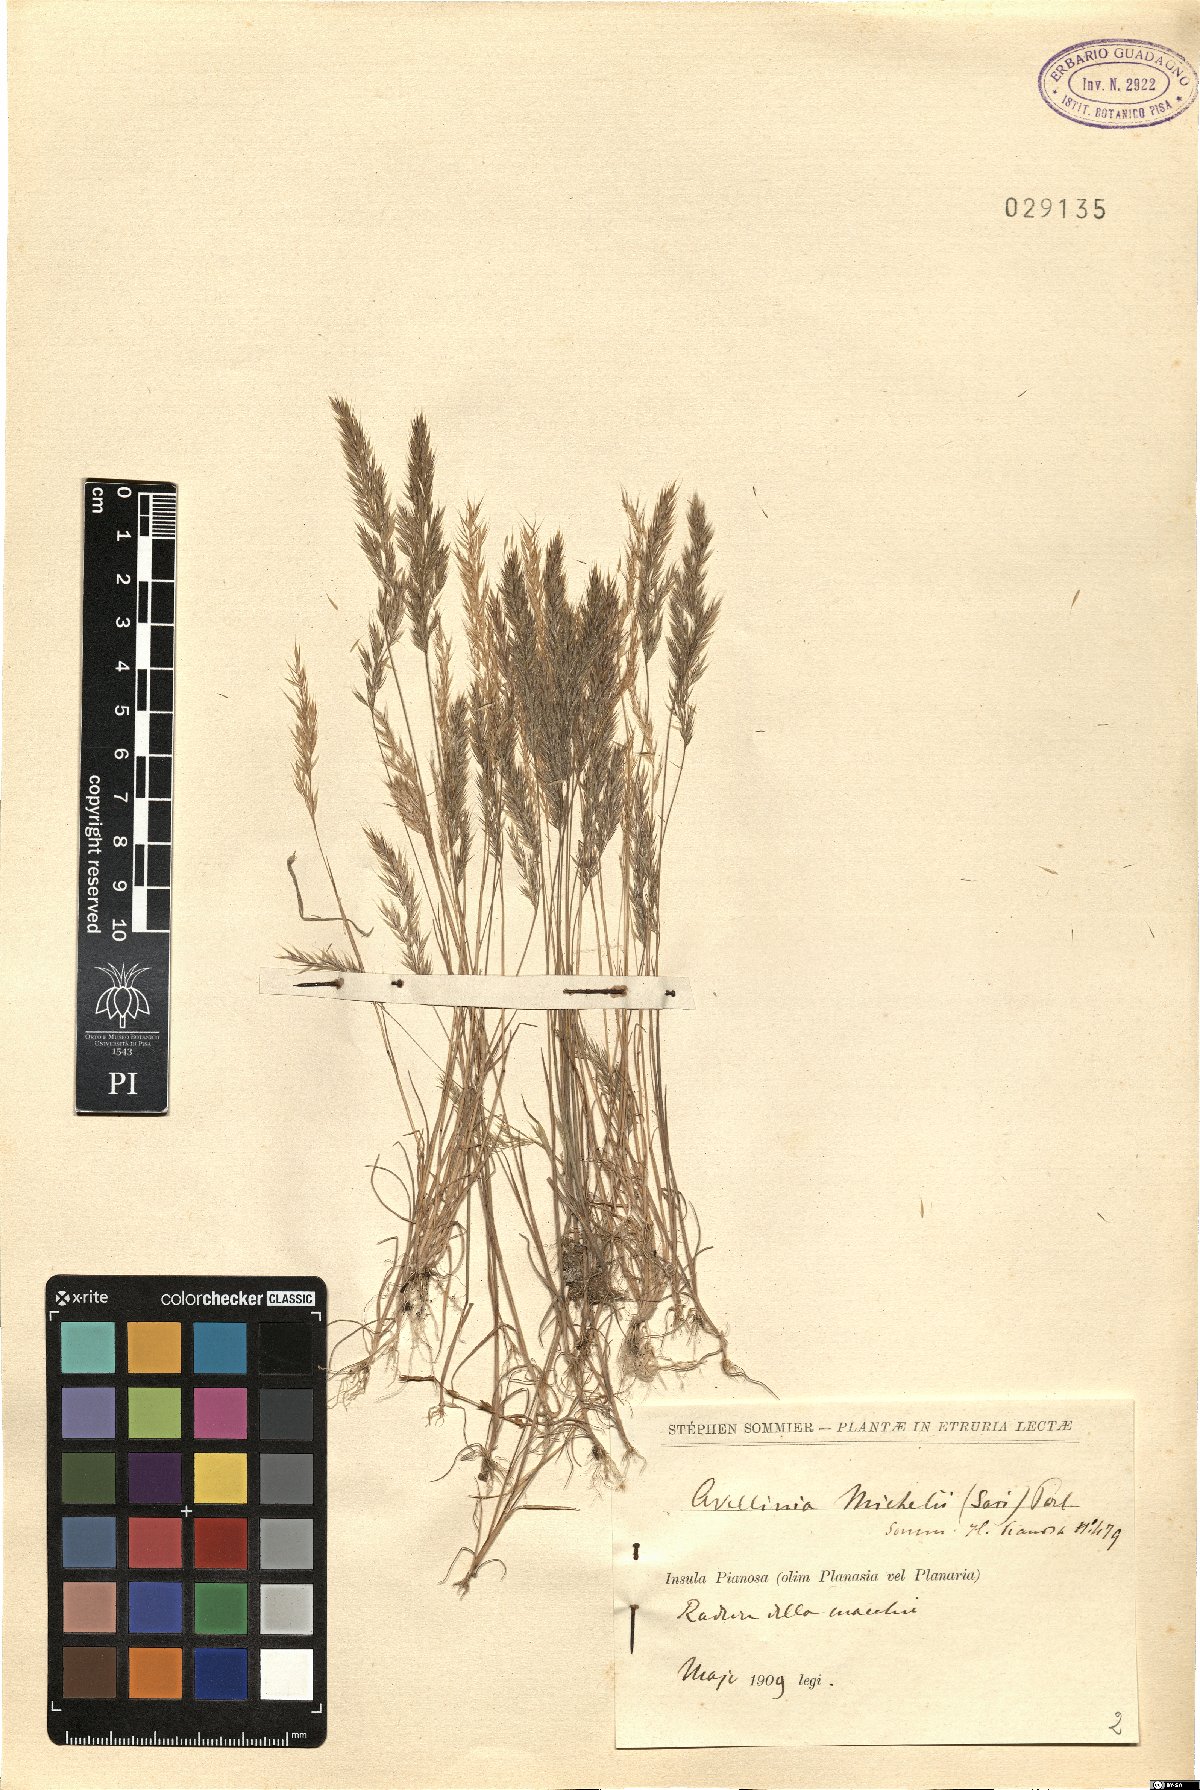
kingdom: Plantae
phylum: Tracheophyta
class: Liliopsida
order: Poales
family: Poaceae
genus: Avellinia
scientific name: Avellinia festucoides
